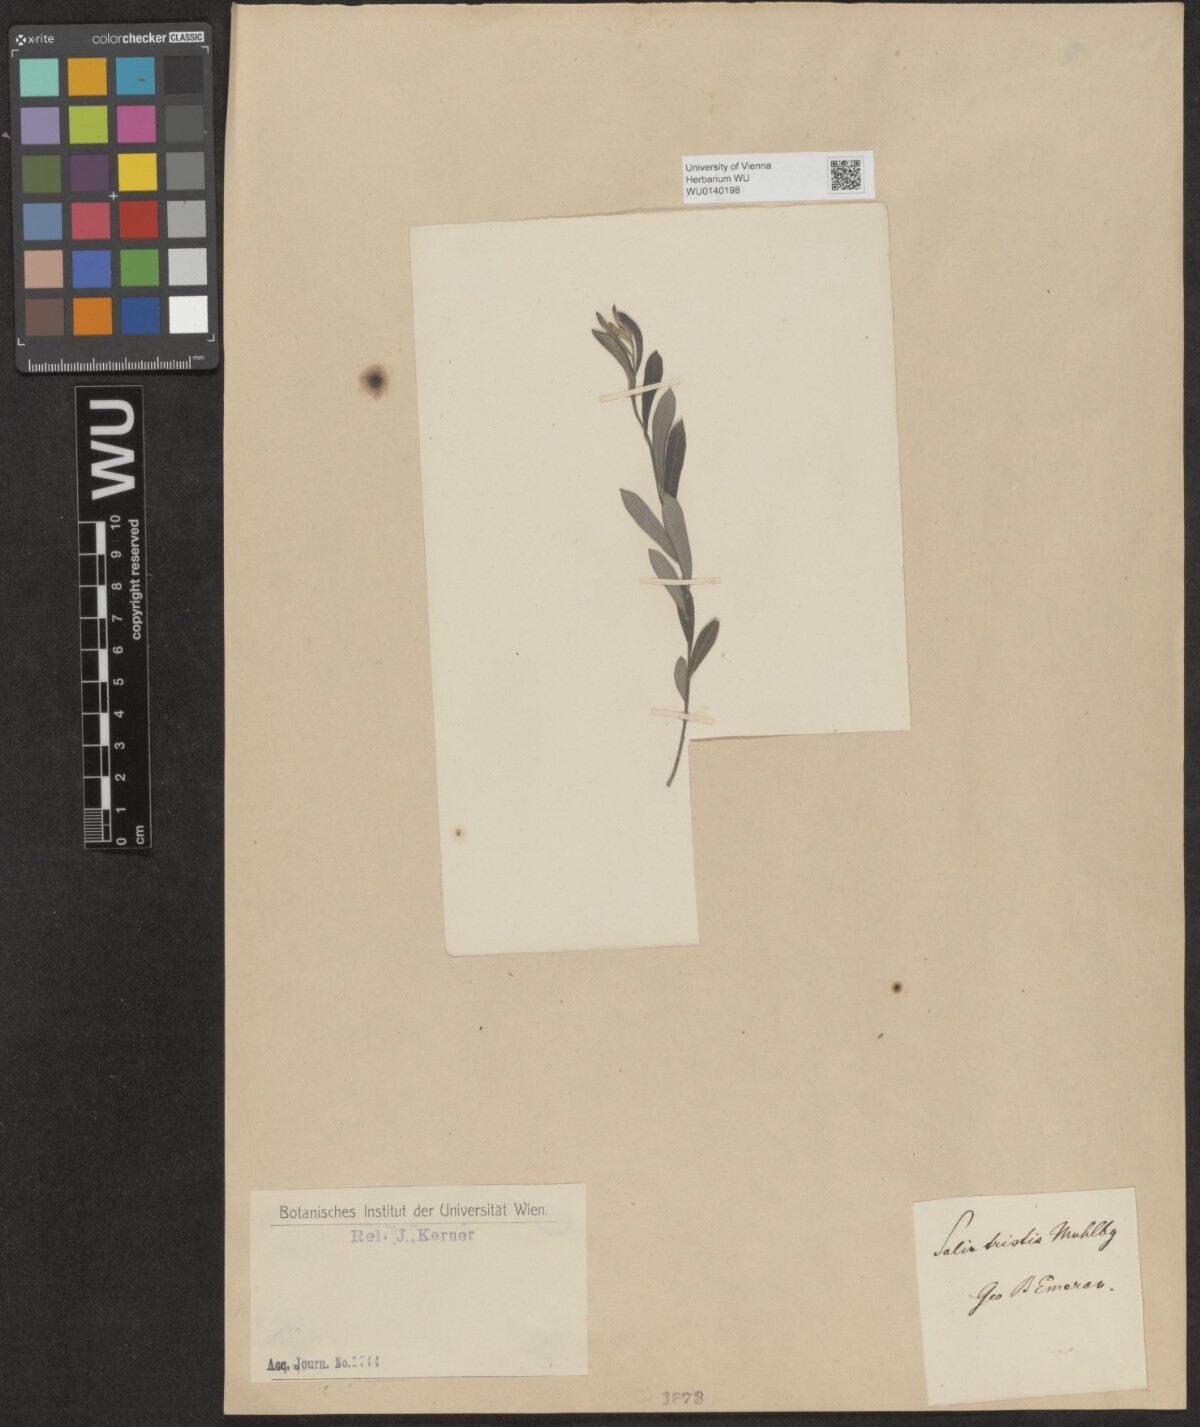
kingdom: Plantae
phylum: Tracheophyta
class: Magnoliopsida
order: Malpighiales
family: Salicaceae
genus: Salix
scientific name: Salix humilis
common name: Prairie willow
